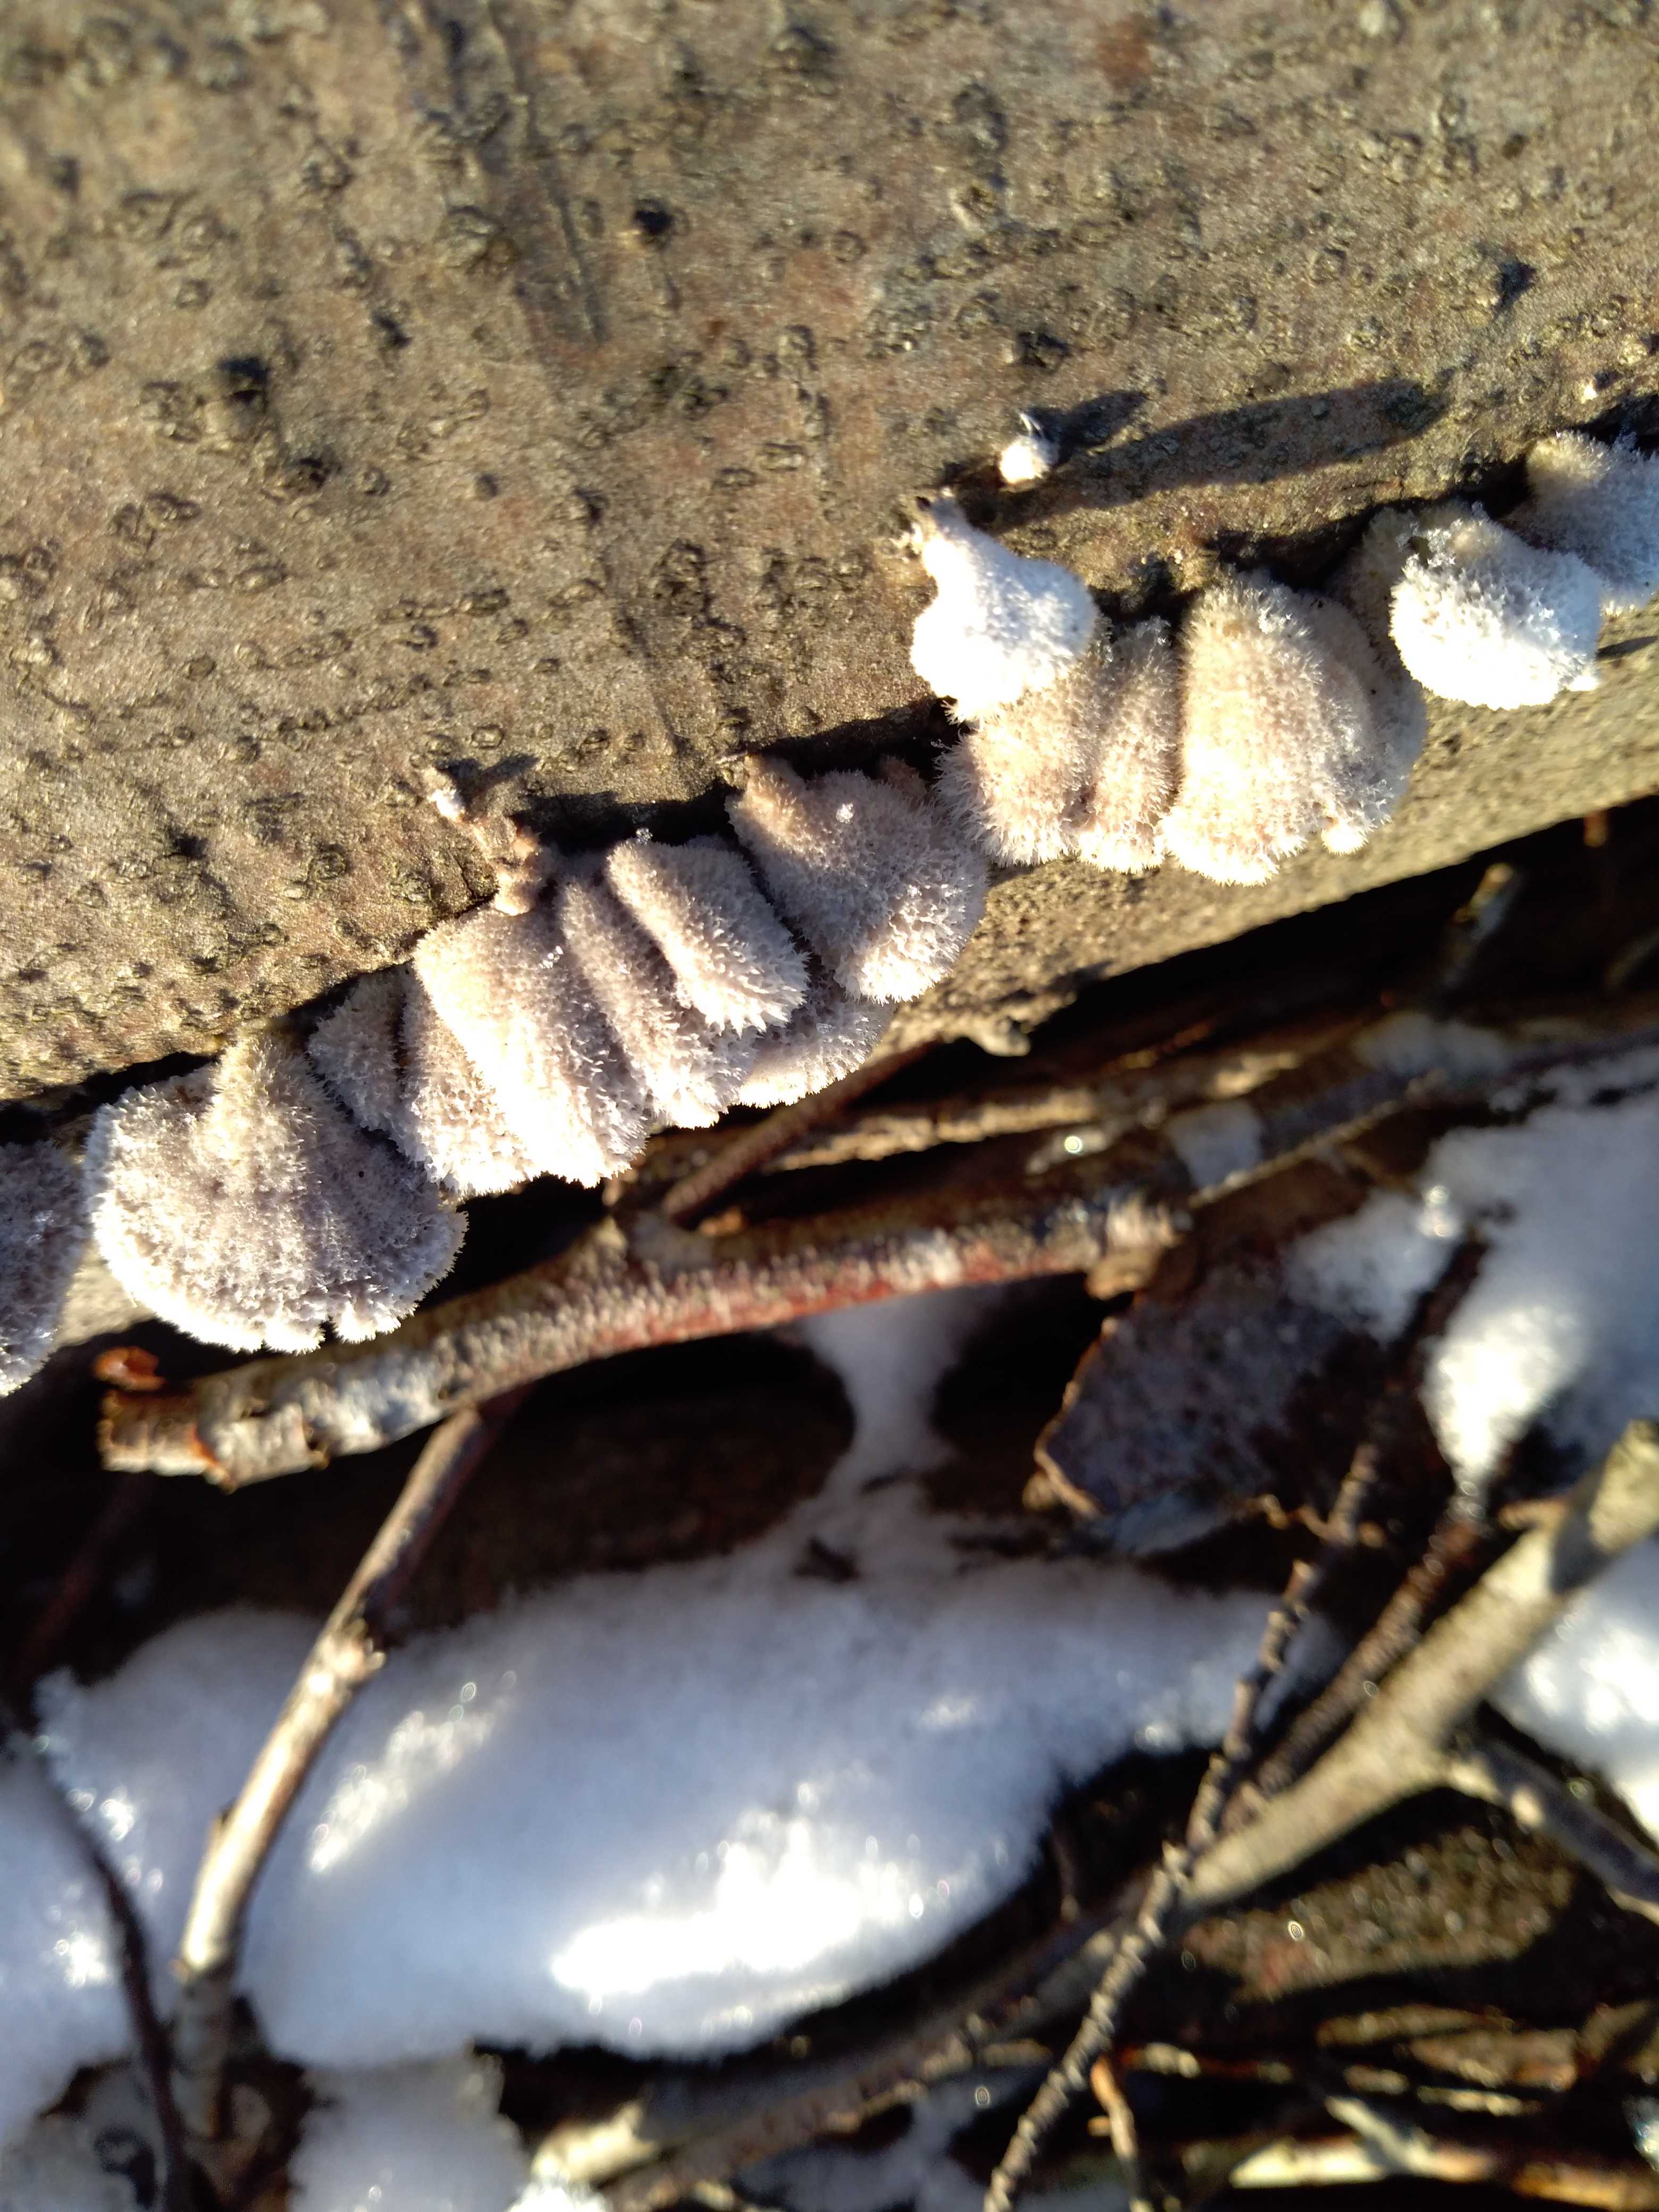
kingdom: Fungi
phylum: Basidiomycota
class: Agaricomycetes
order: Agaricales
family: Schizophyllaceae
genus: Schizophyllum
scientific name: Schizophyllum commune
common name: kløvblad
